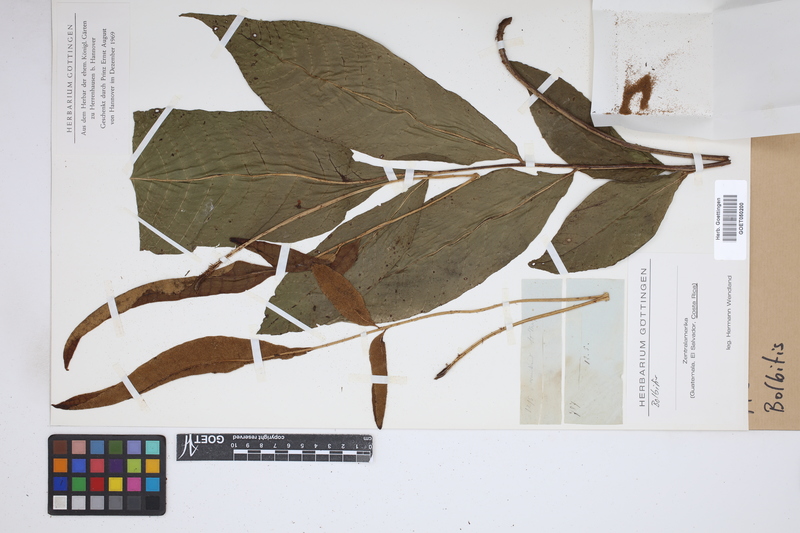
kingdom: Plantae
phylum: Tracheophyta
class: Polypodiopsida
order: Polypodiales
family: Dryopteridaceae
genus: Bolbitis
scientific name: Bolbitis
